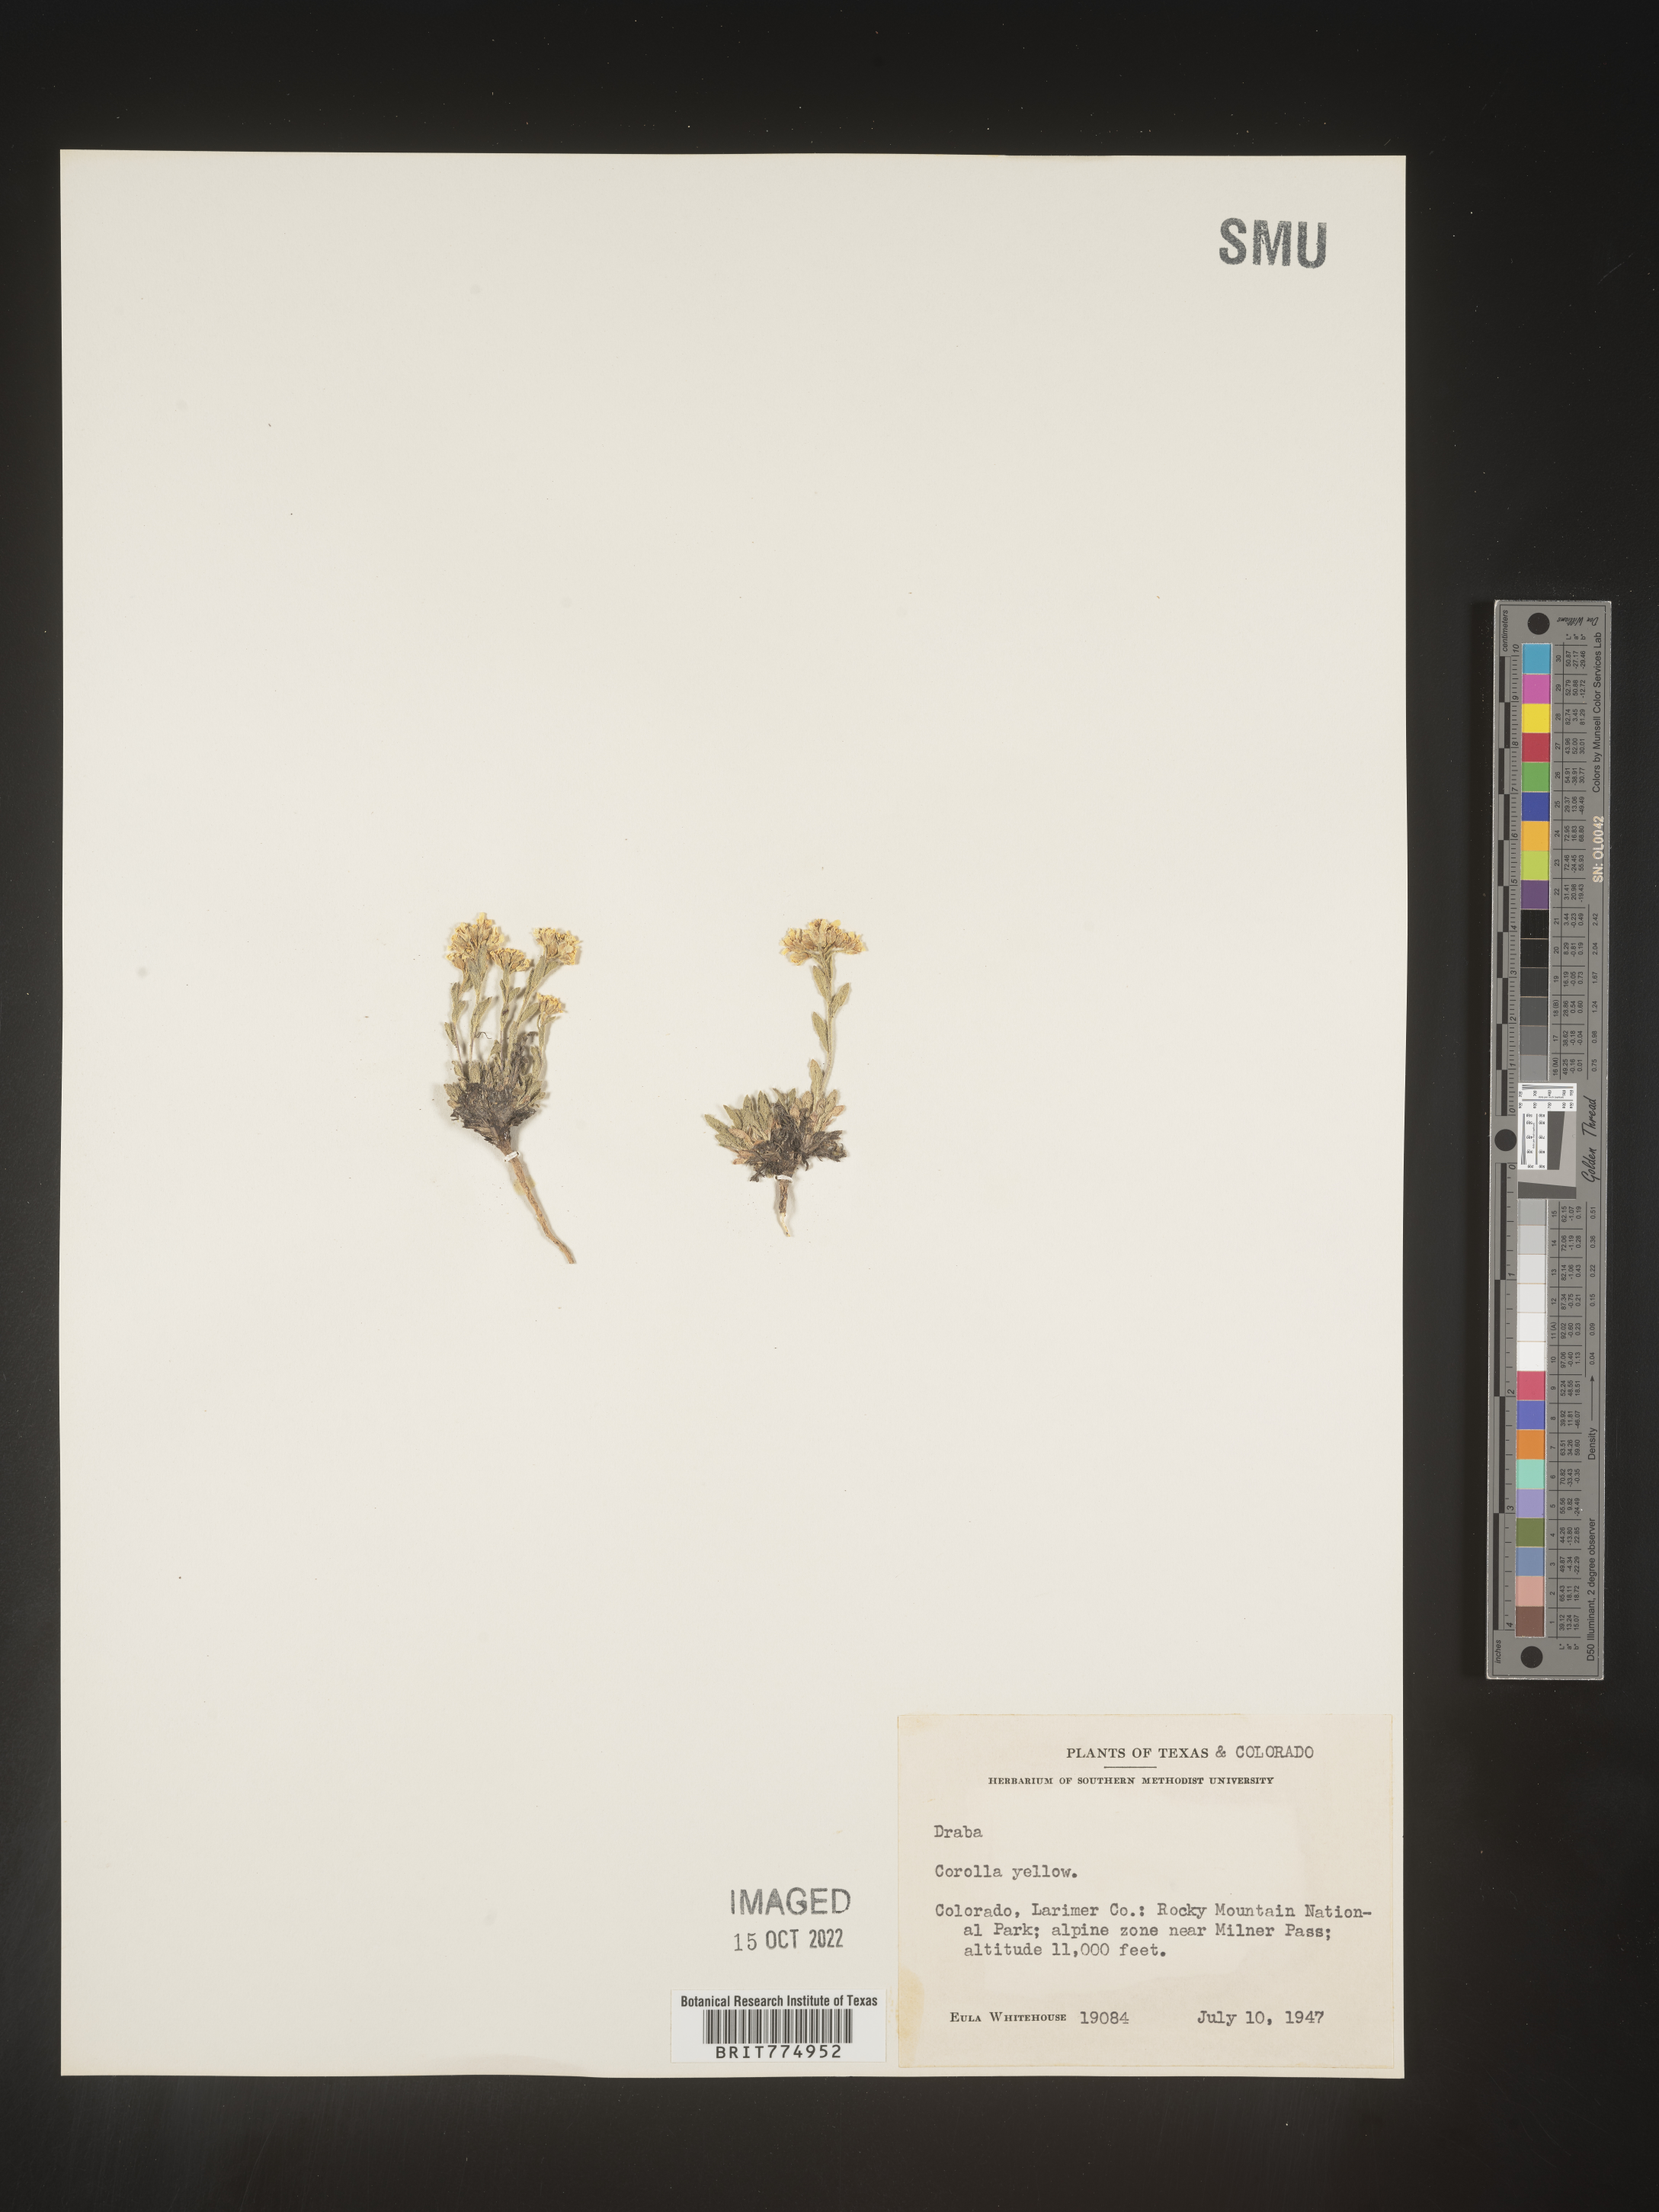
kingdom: Plantae
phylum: Tracheophyta
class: Magnoliopsida
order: Brassicales
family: Brassicaceae
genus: Draba
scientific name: Draba
